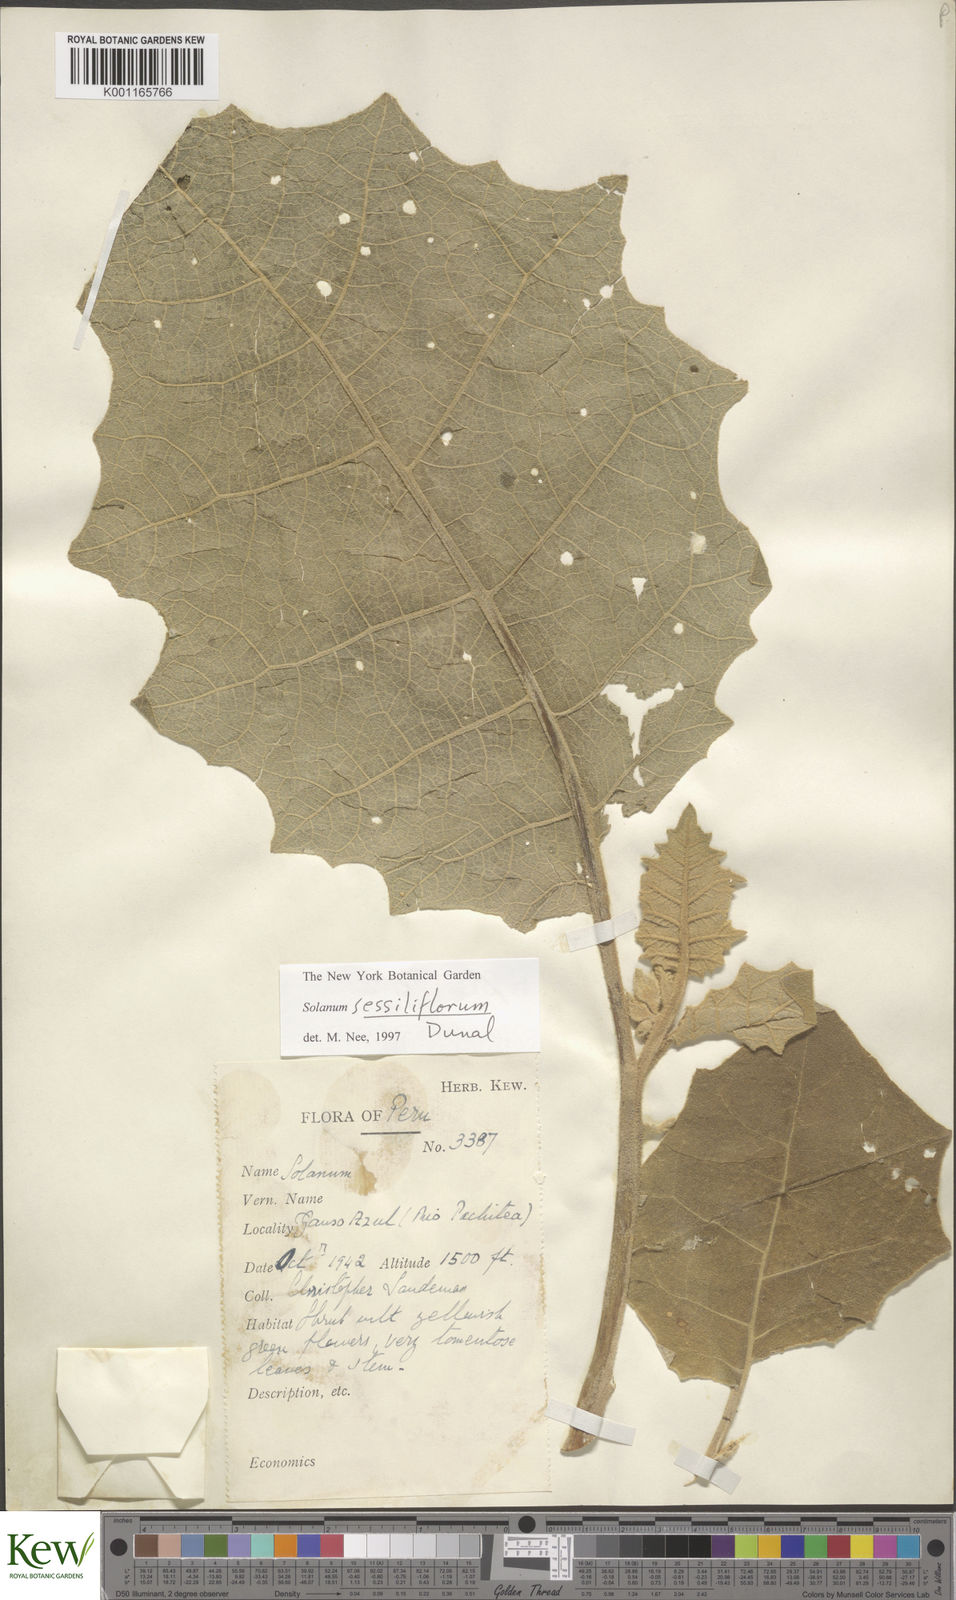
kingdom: Plantae
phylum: Tracheophyta
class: Magnoliopsida
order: Solanales
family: Solanaceae
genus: Solanum
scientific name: Solanum sessiliflorum
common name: Orinoco-apple
